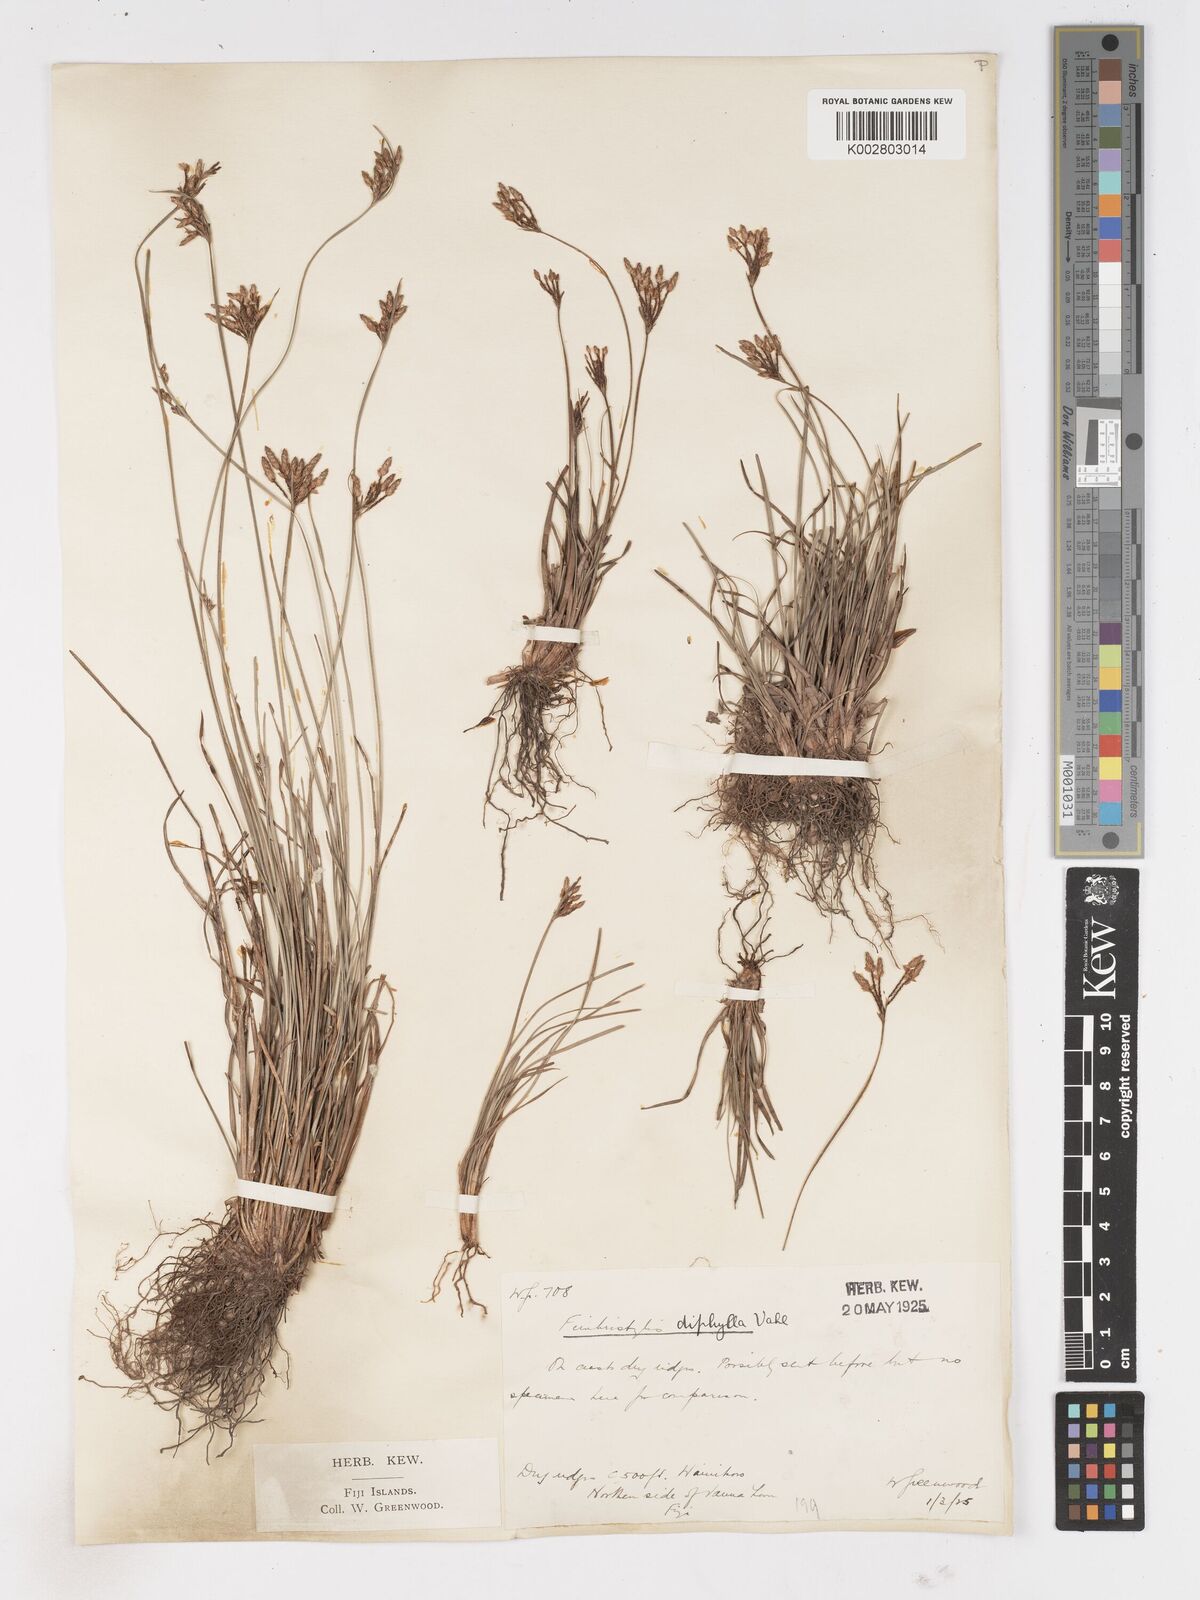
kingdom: Plantae
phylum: Tracheophyta
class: Liliopsida
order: Poales
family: Cyperaceae
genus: Fimbristylis
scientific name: Fimbristylis dichotoma
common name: Forked fimbry
